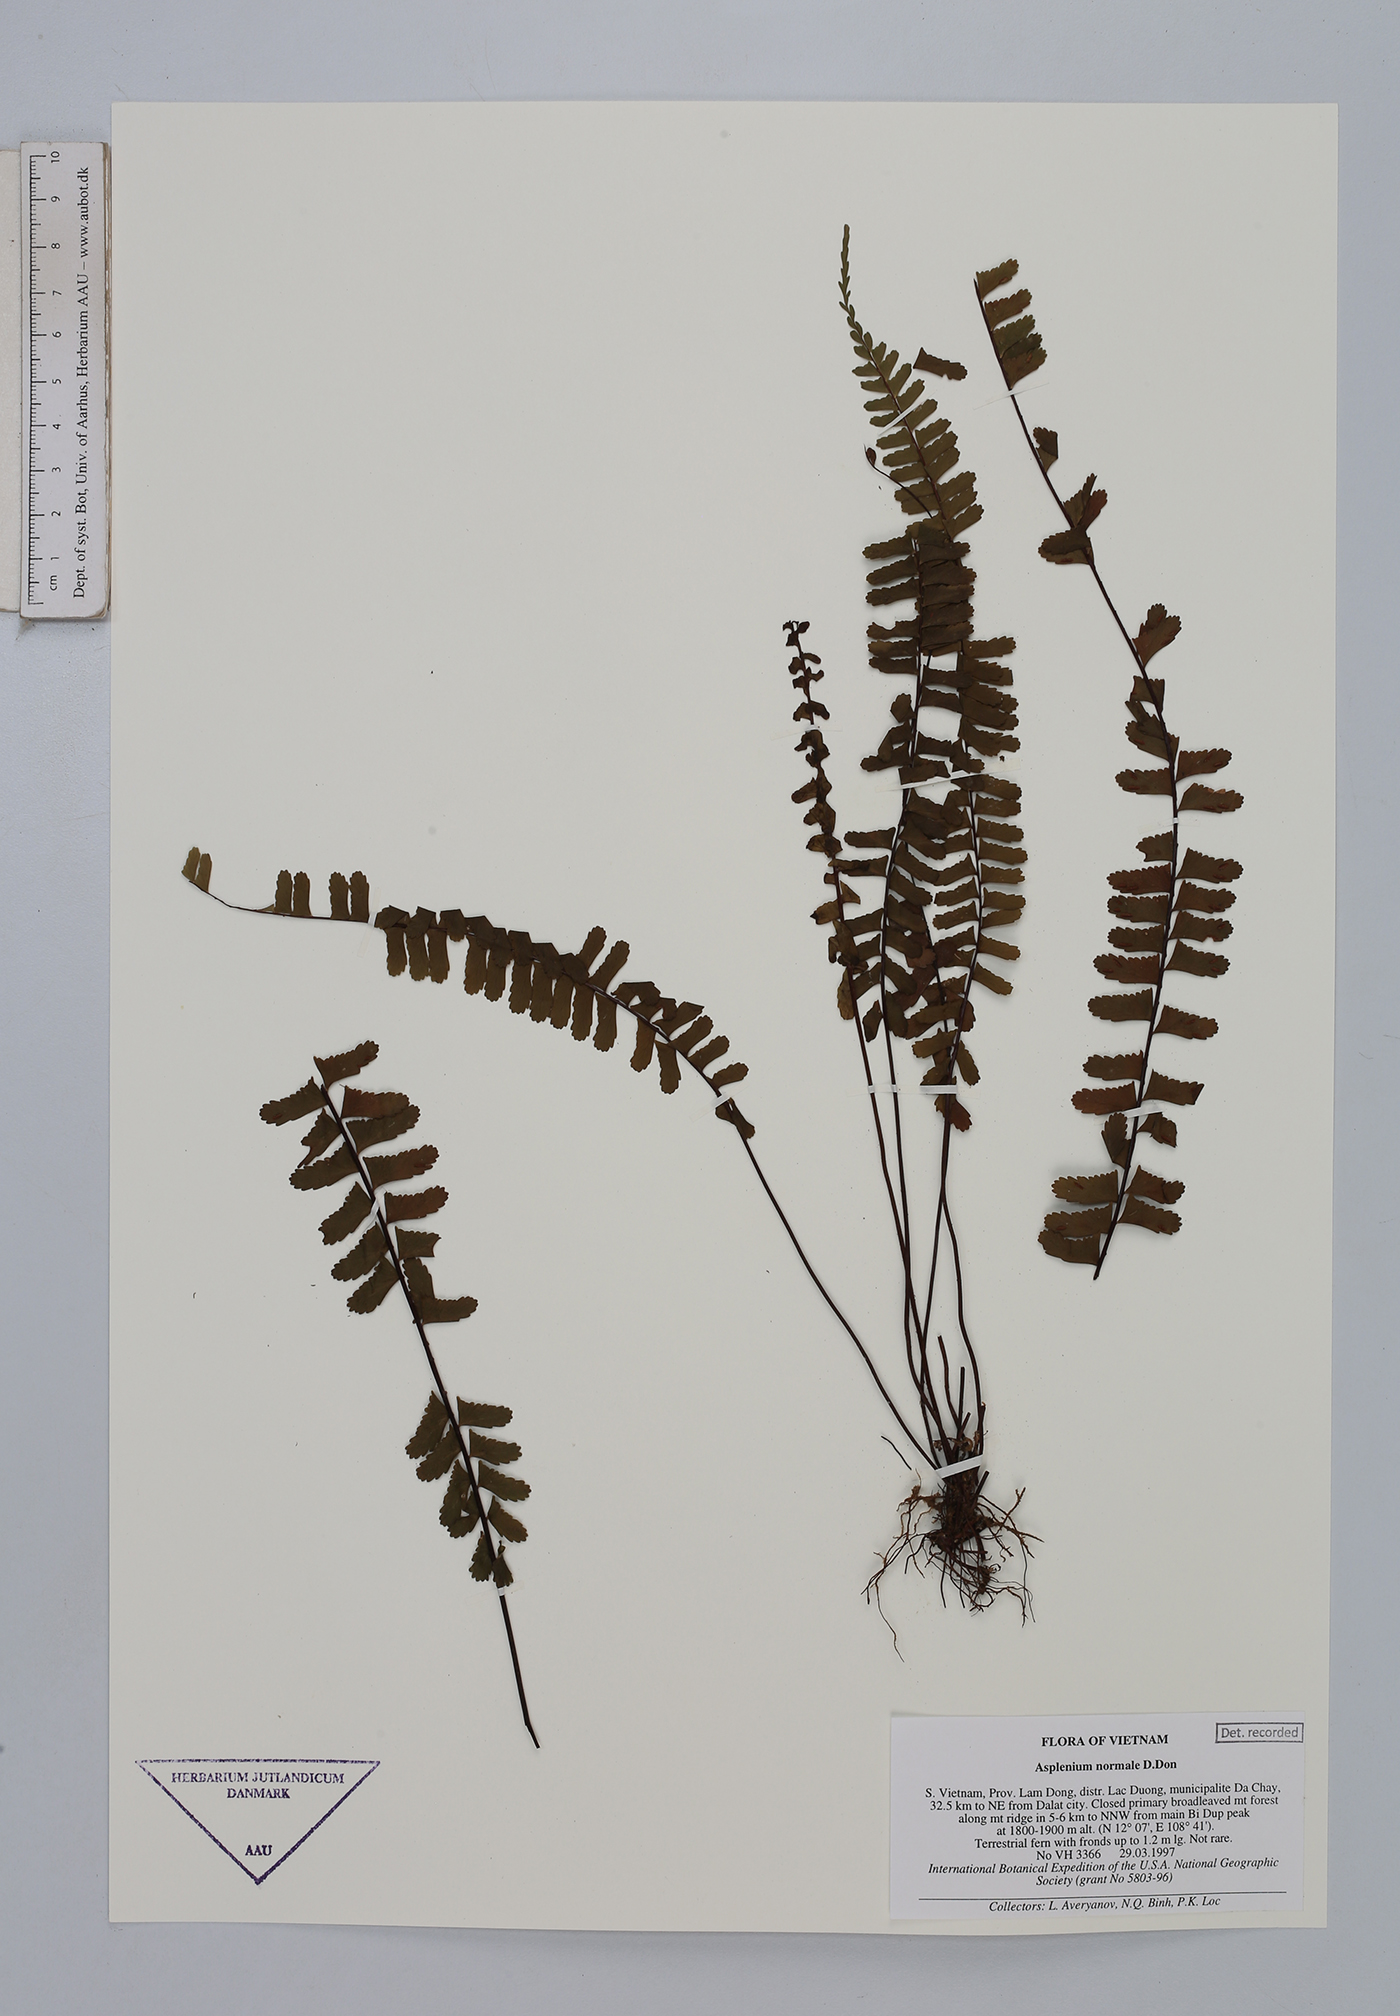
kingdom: Plantae
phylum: Tracheophyta
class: Polypodiopsida
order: Polypodiales
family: Aspleniaceae
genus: Asplenium
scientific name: Asplenium normale
